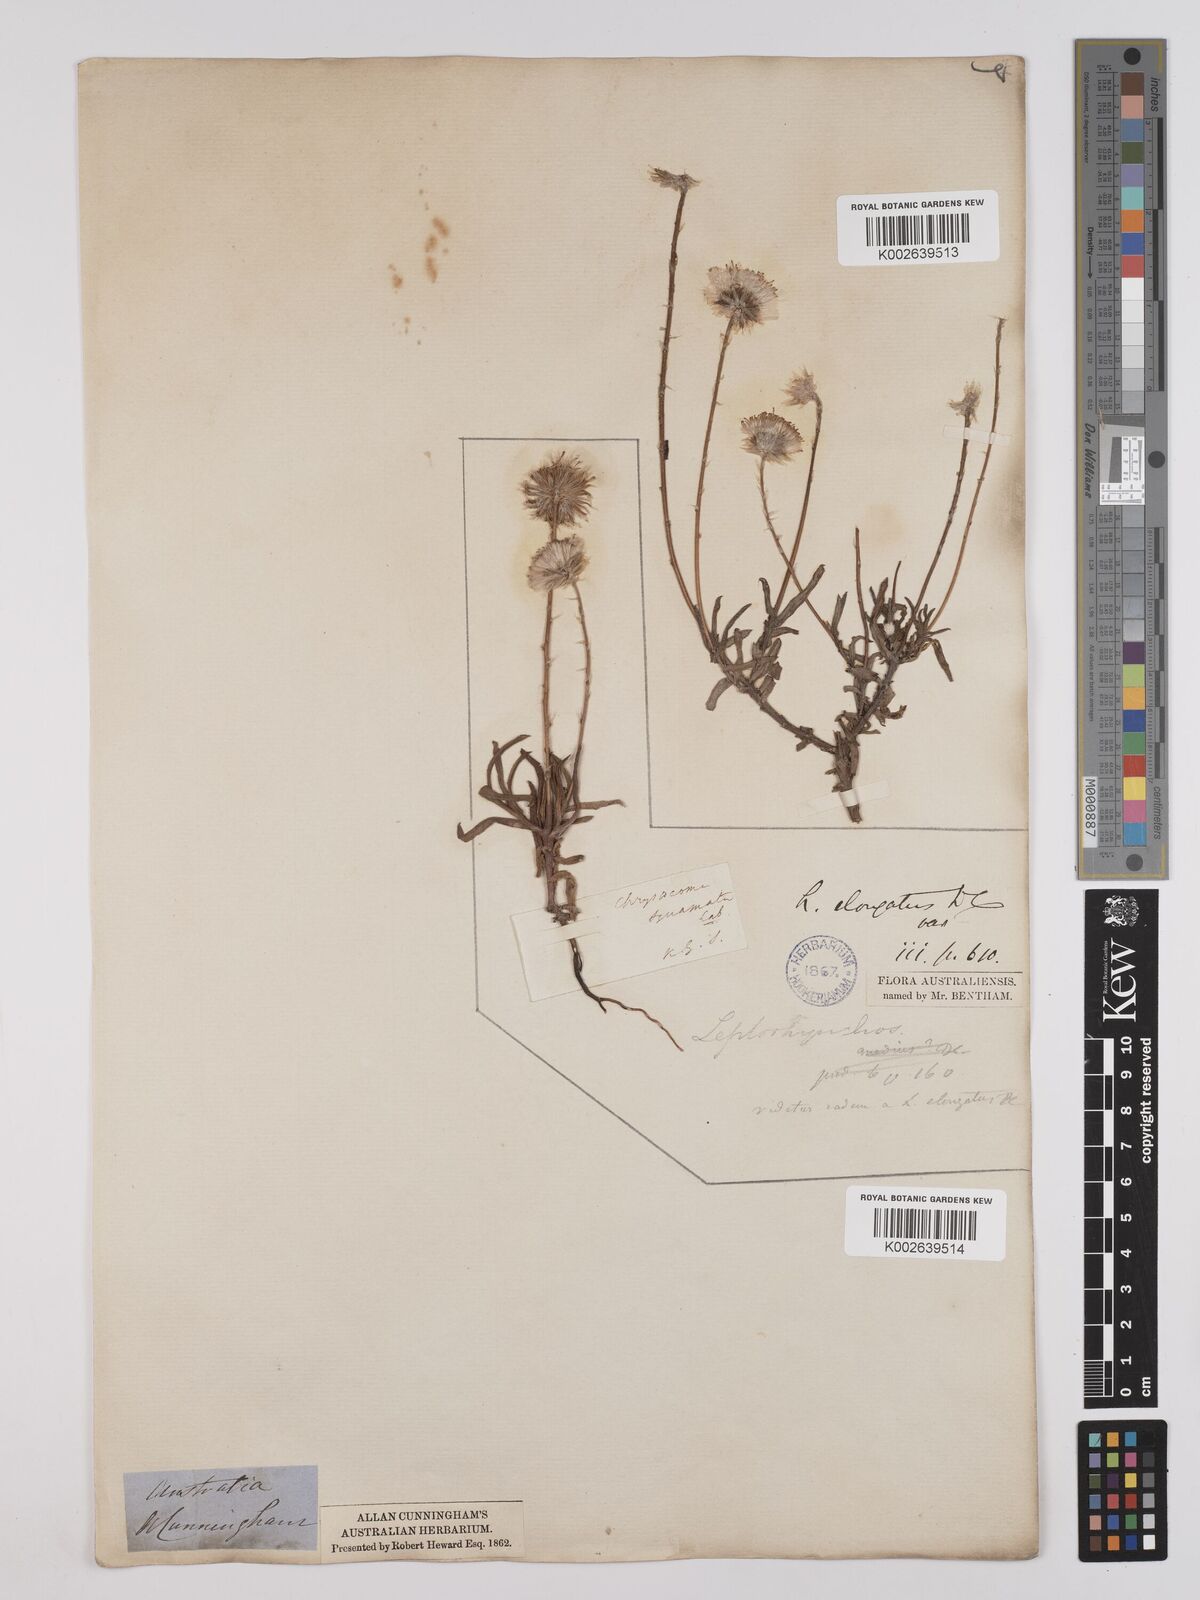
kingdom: Plantae
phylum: Tracheophyta
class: Magnoliopsida
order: Asterales
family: Asteraceae
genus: Leptorhynchos
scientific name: Leptorhynchos elongatus
